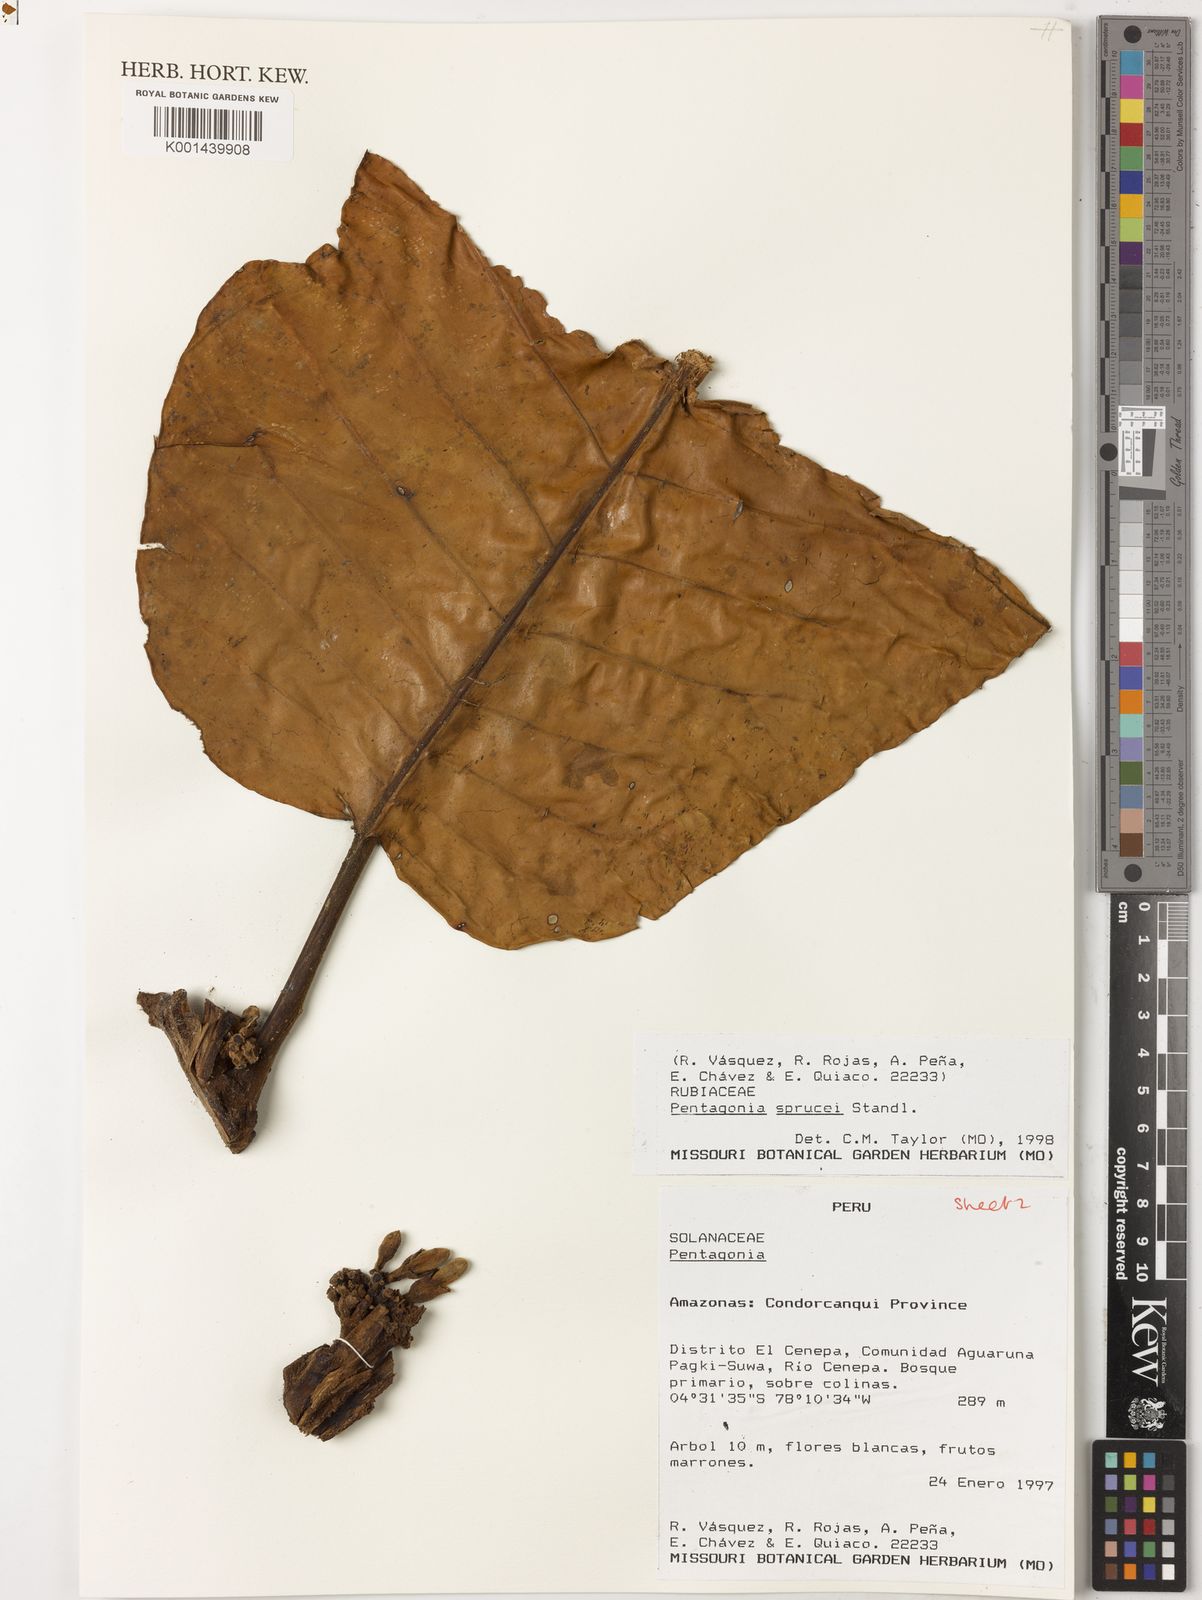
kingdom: Plantae
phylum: Tracheophyta
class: Magnoliopsida
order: Gentianales
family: Rubiaceae
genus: Pentagonia
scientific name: Pentagonia macrophylla
